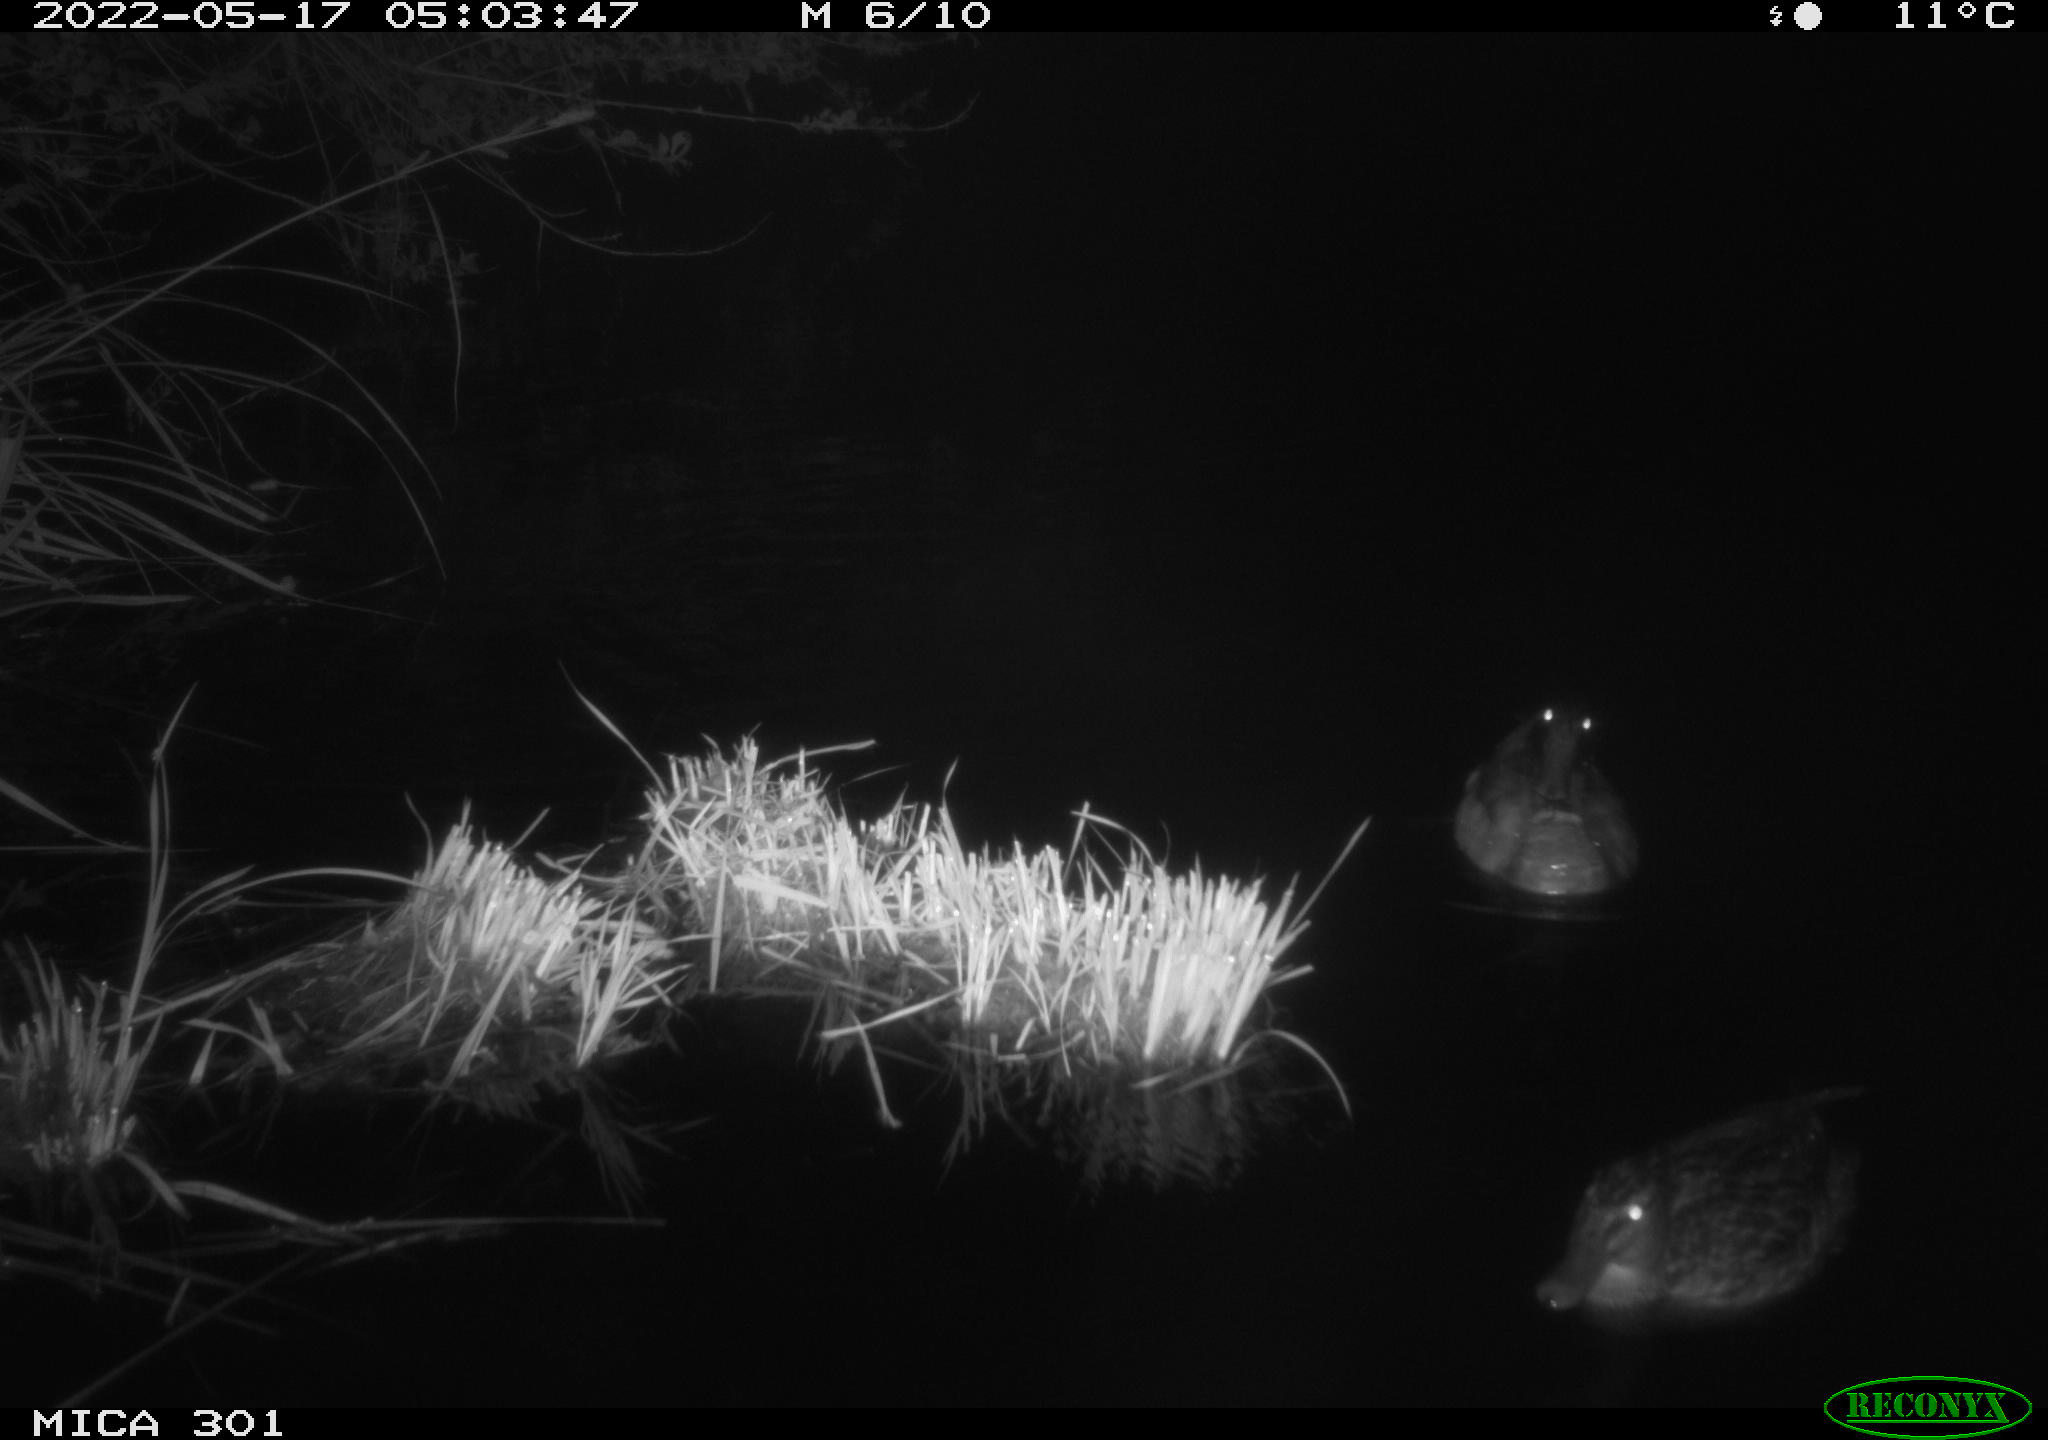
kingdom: Animalia
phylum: Chordata
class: Aves
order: Anseriformes
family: Anatidae
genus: Anas
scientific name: Anas platyrhynchos
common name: Mallard
